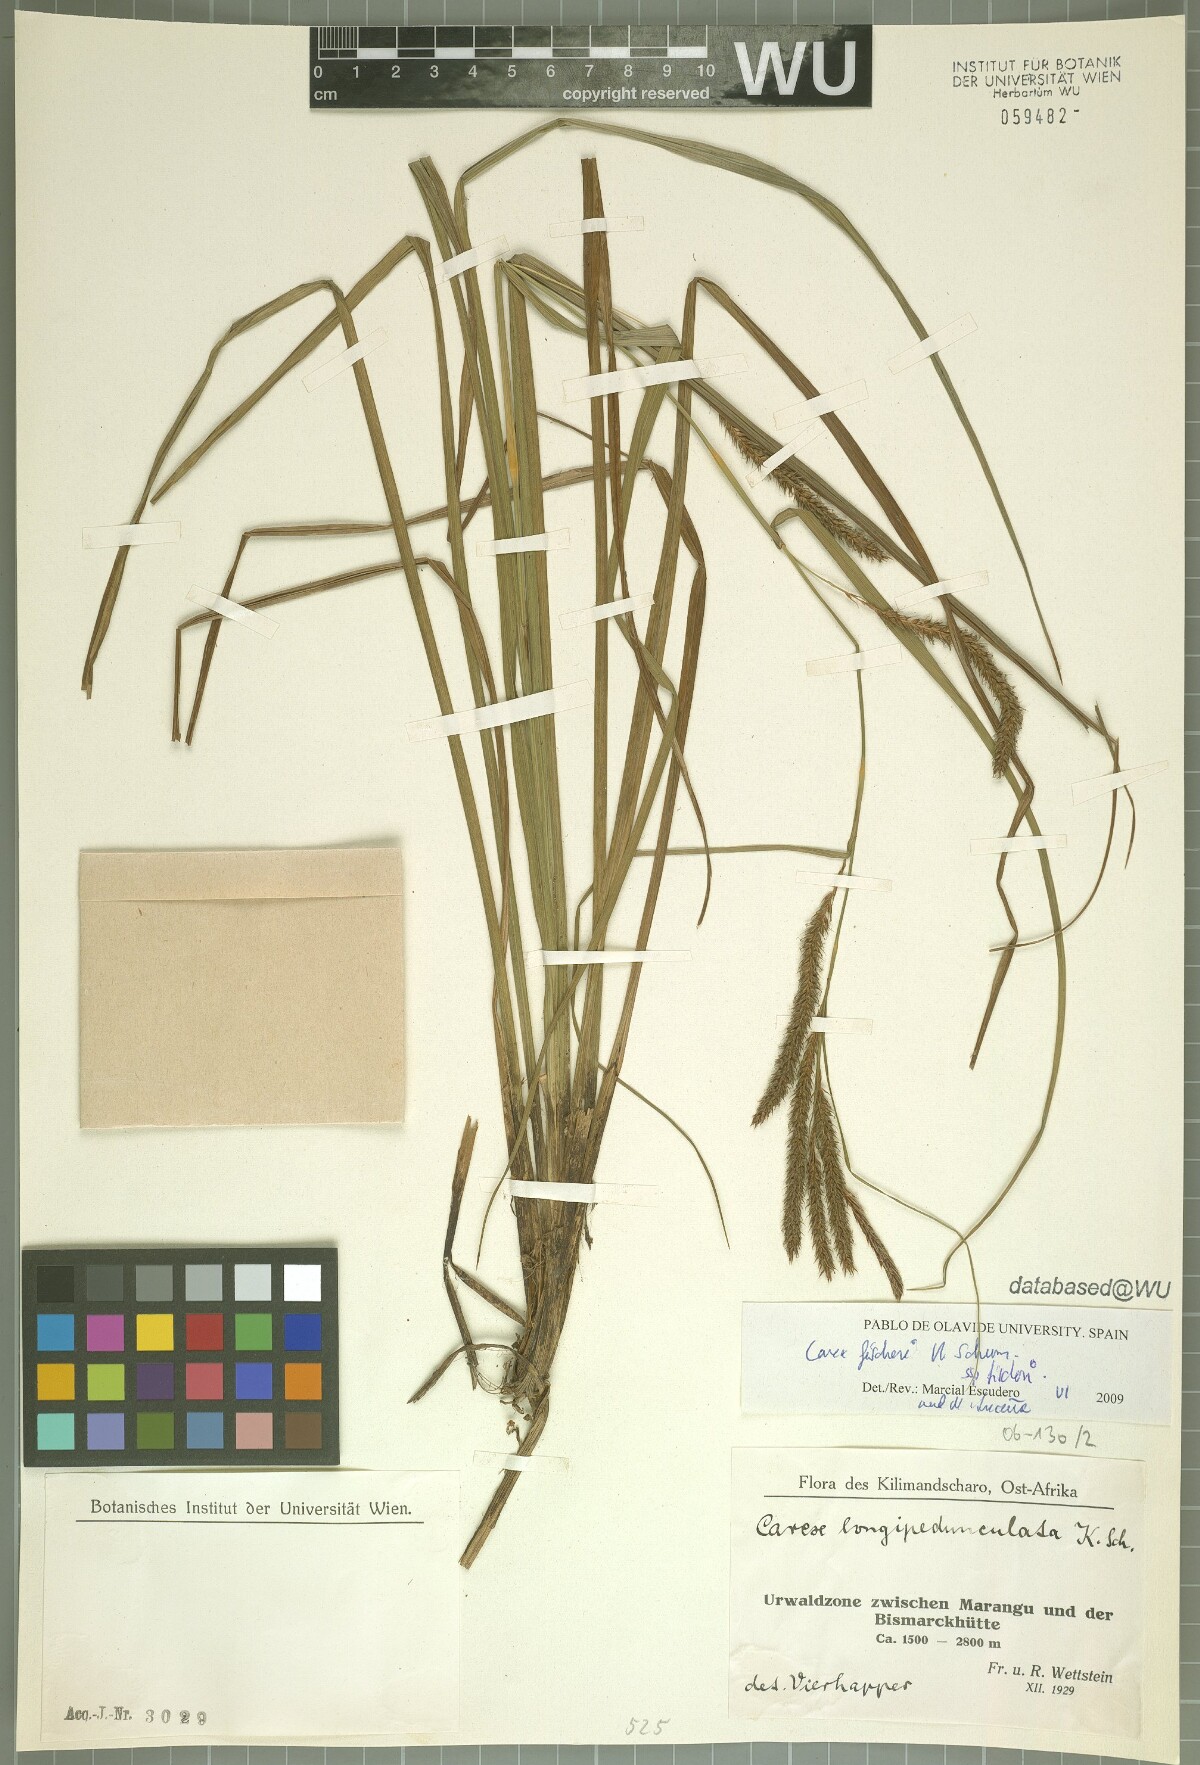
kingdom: Plantae
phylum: Tracheophyta
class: Liliopsida
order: Poales
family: Cyperaceae
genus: Carex
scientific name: Carex fischeri
